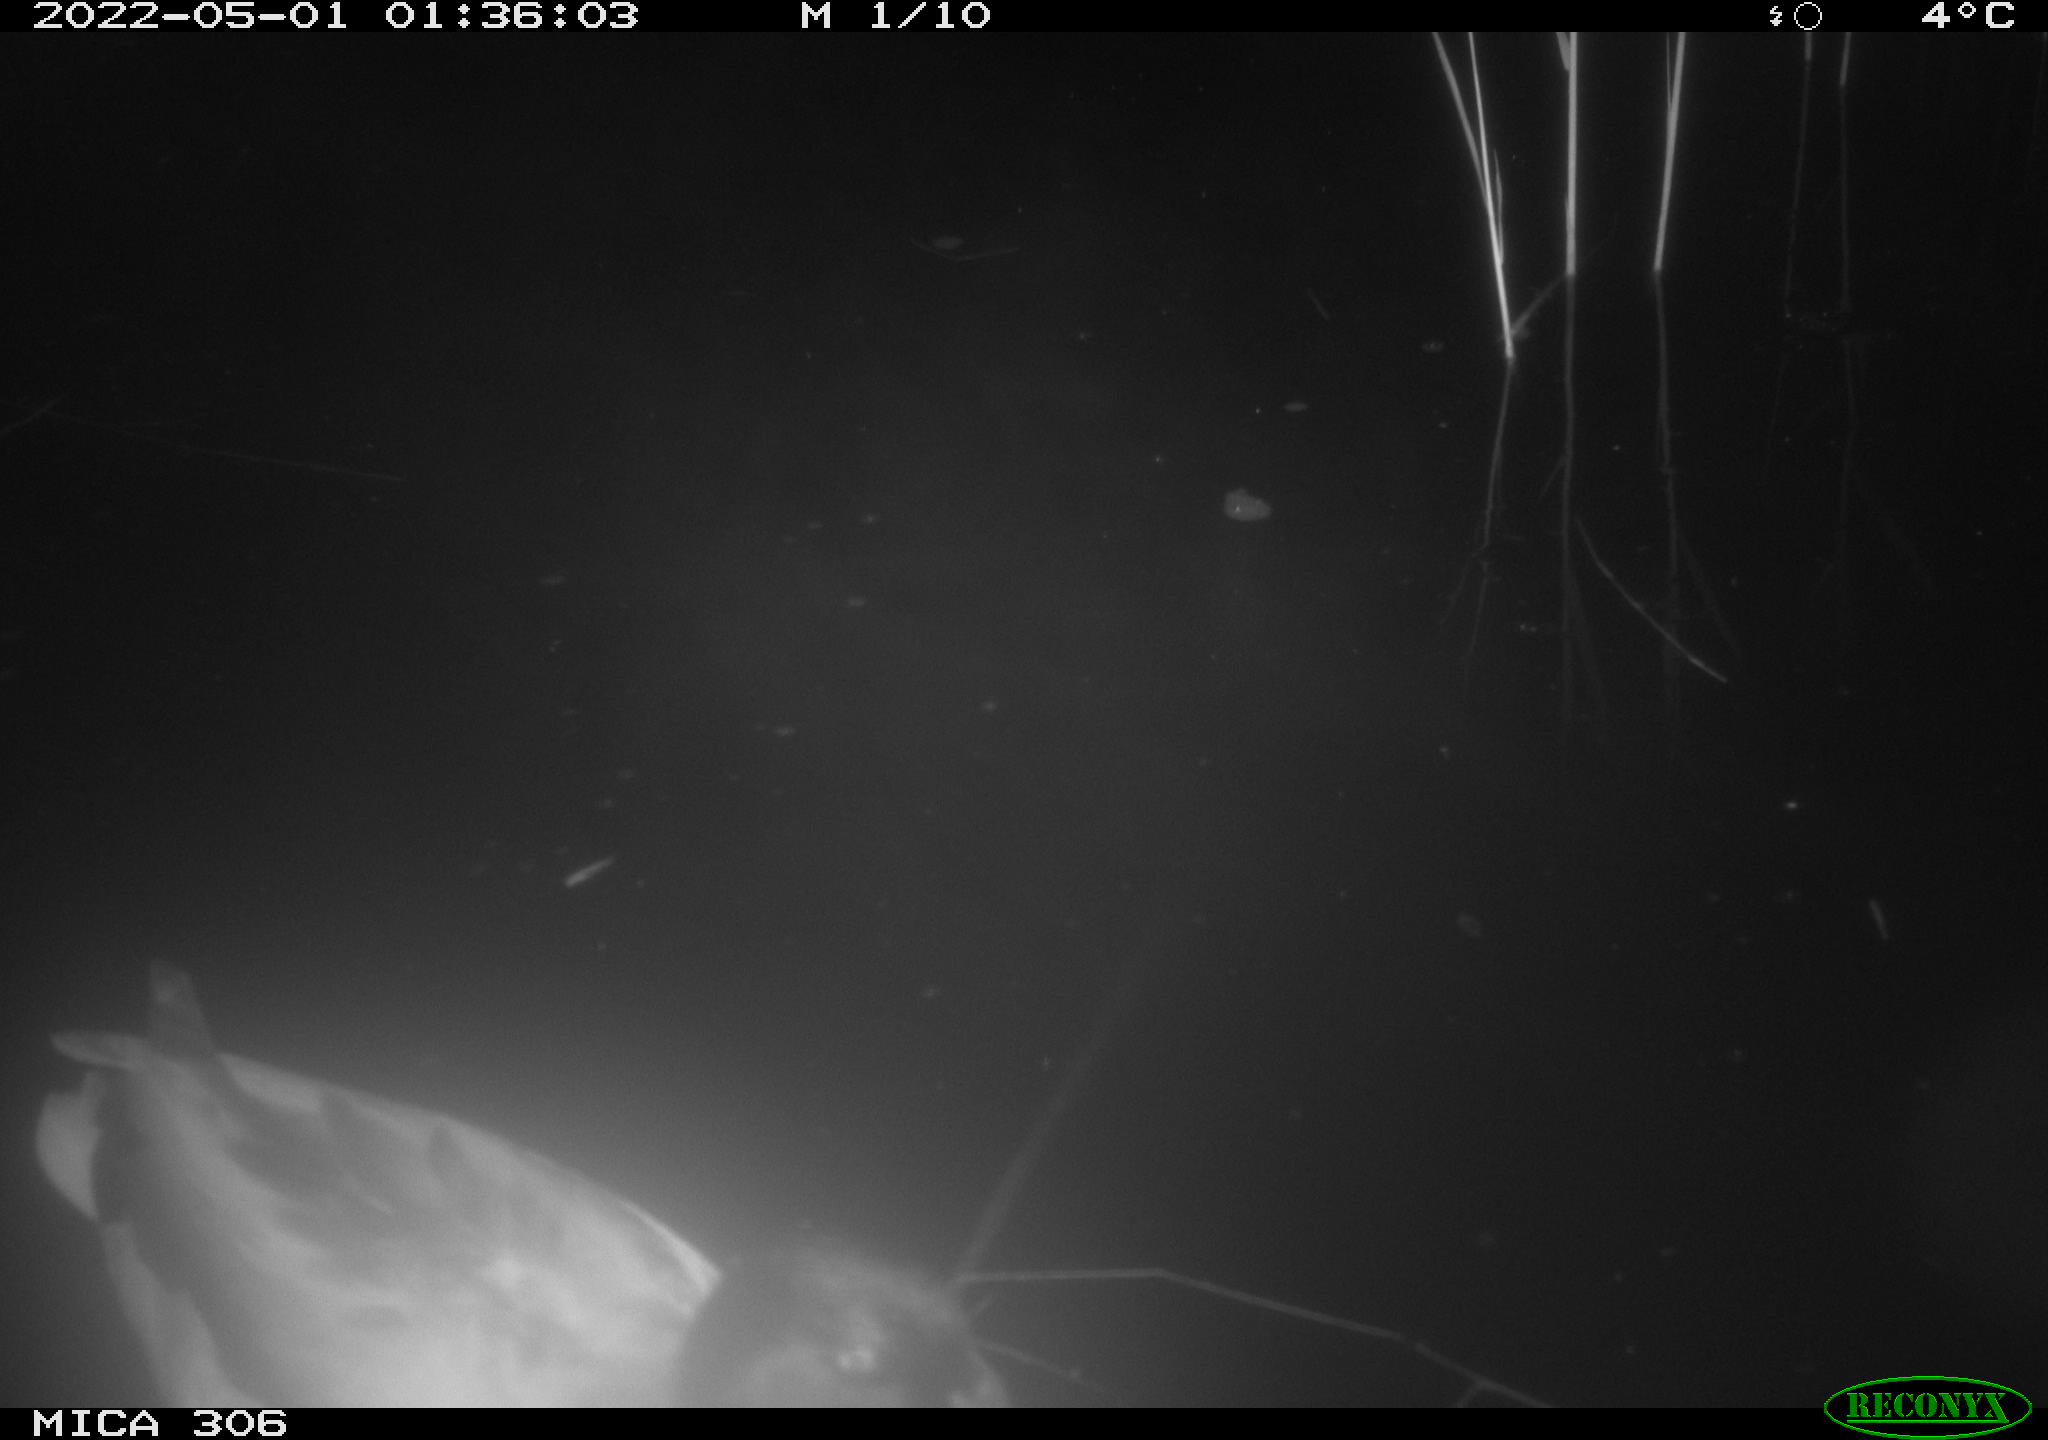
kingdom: Animalia
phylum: Chordata
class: Aves
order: Anseriformes
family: Anatidae
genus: Anas
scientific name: Anas platyrhynchos
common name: Mallard
